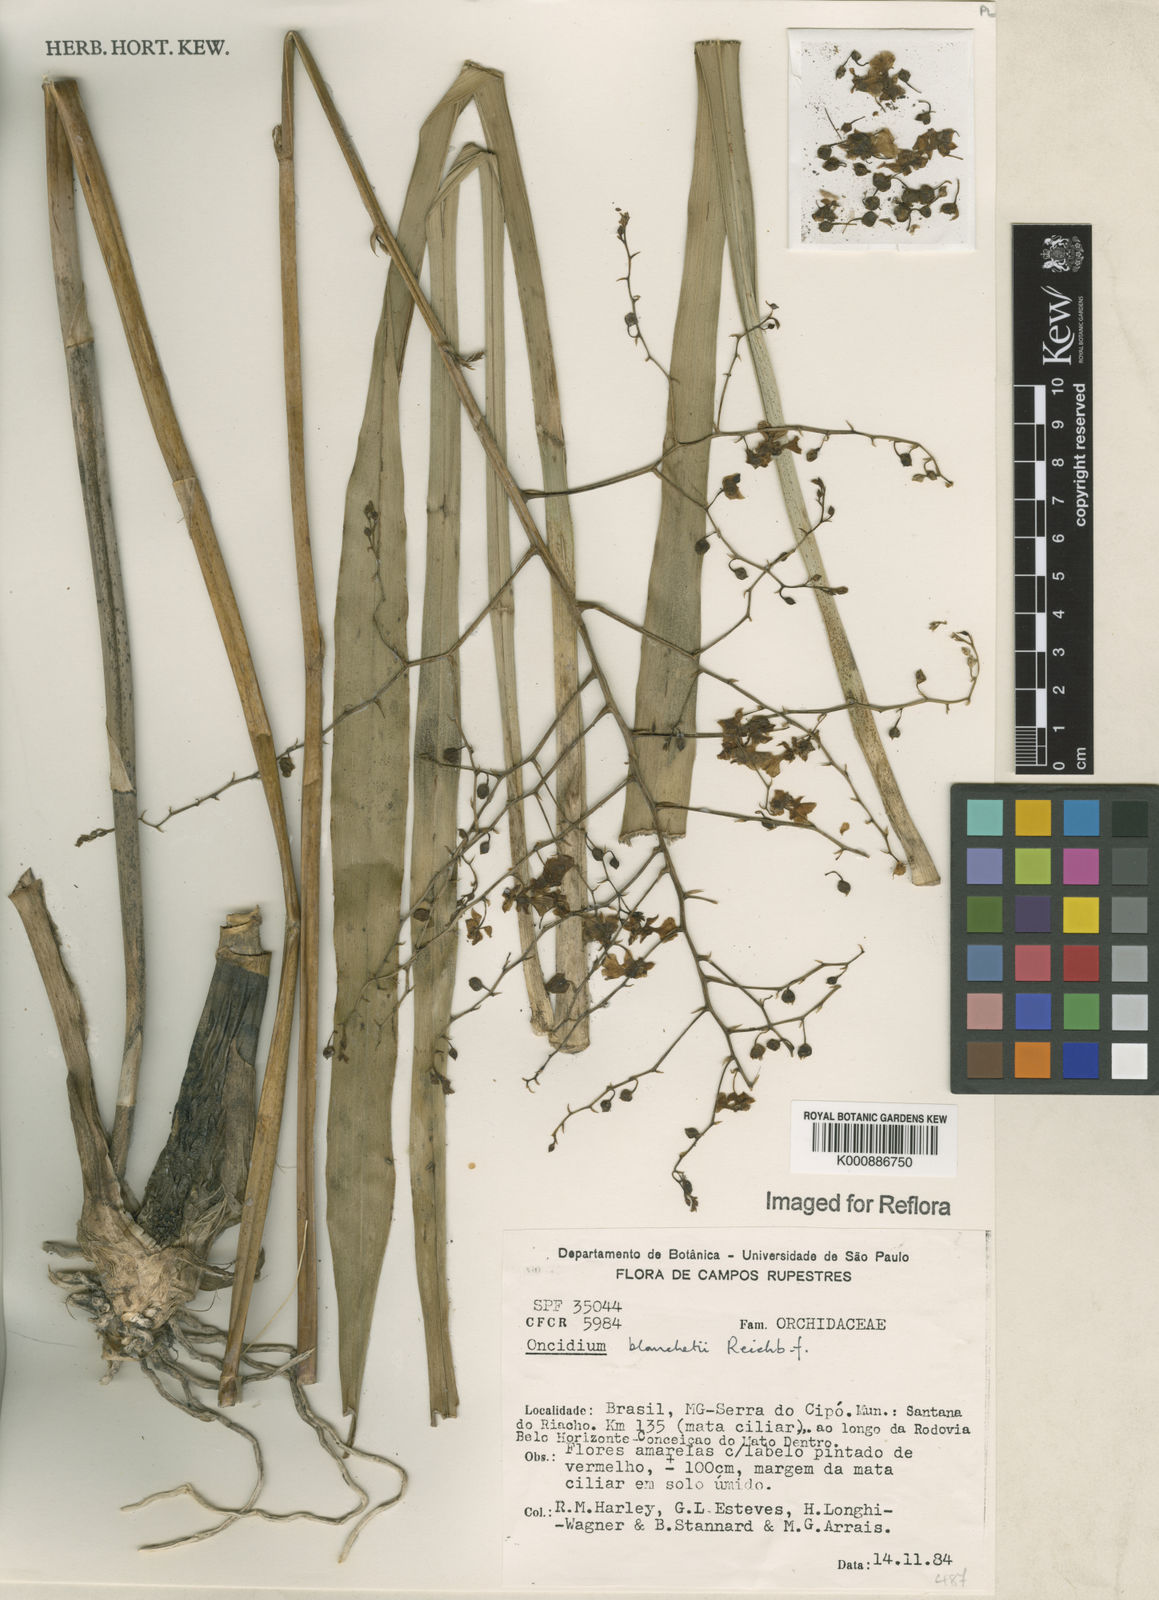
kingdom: Plantae
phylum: Tracheophyta
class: Liliopsida
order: Asparagales
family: Orchidaceae
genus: Gomesa
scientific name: Gomesa ramosa
